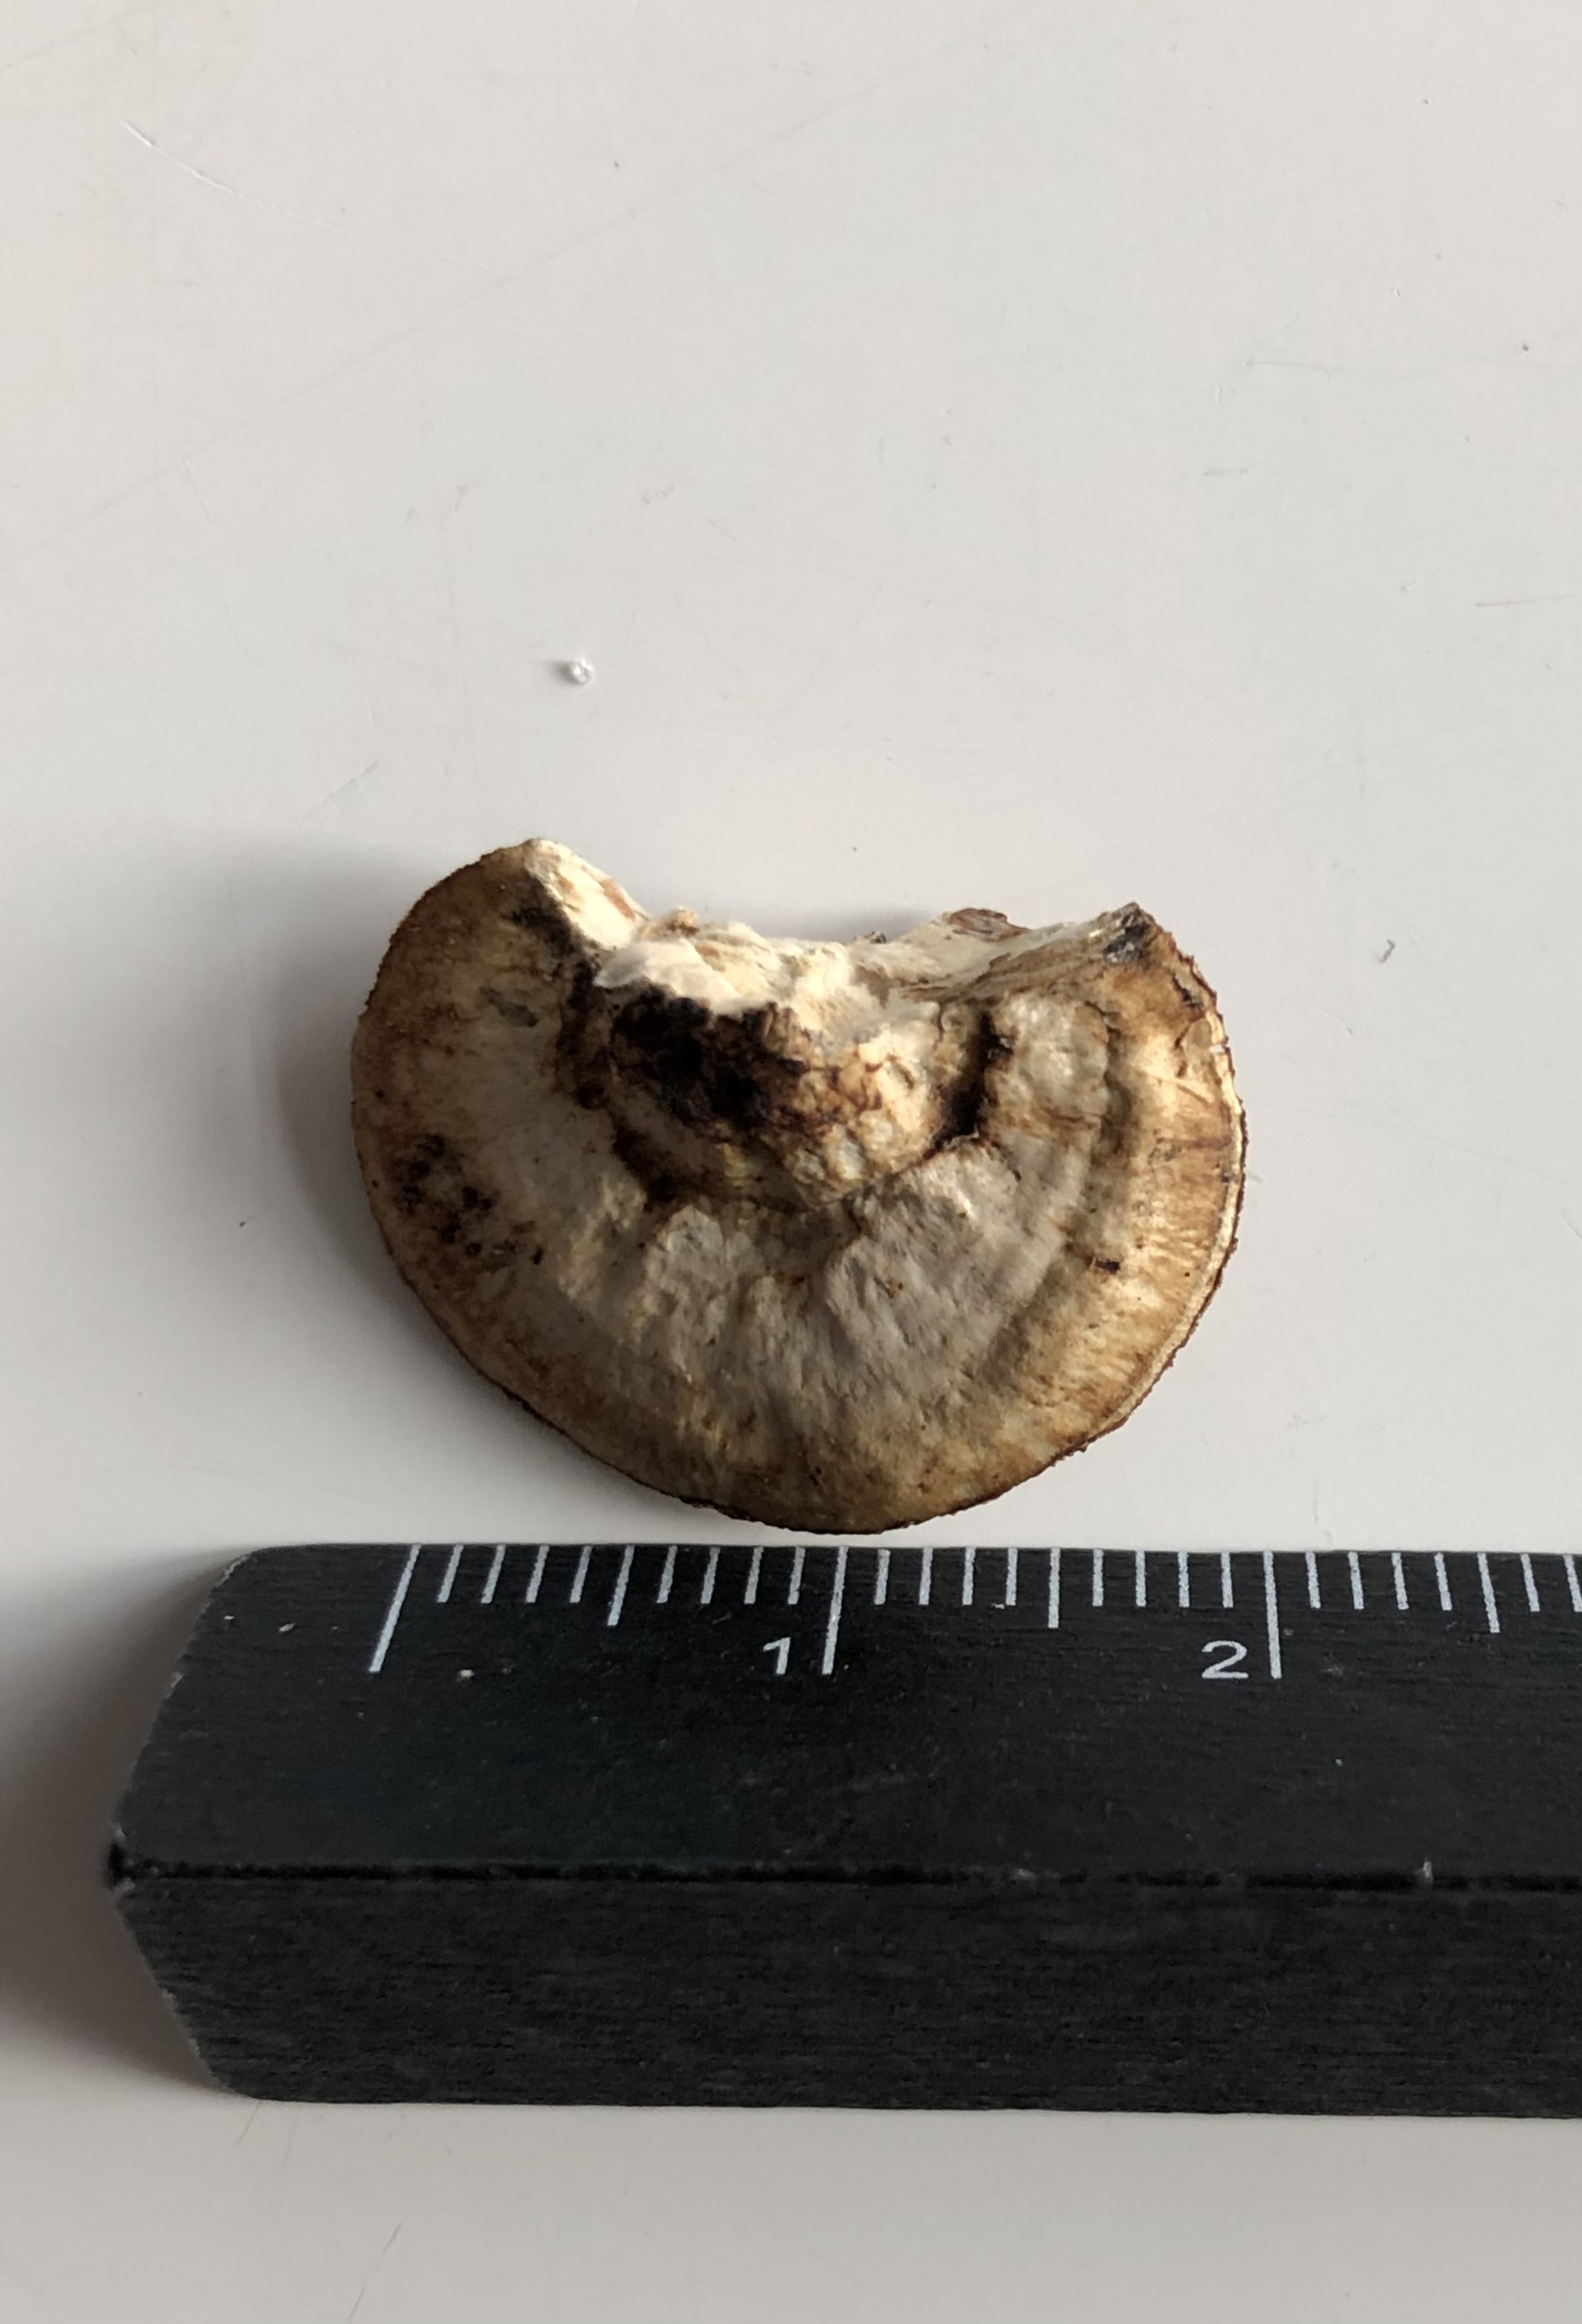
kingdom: Fungi
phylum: Basidiomycota
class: Agaricomycetes
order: Polyporales
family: Polyporaceae
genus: Daedaleopsis
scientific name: Daedaleopsis confragosa
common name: rødmende læderporesvamp
